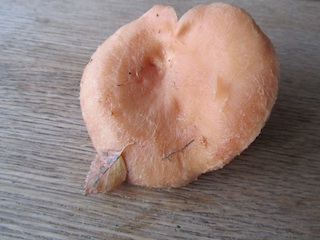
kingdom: Fungi
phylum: Basidiomycota
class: Agaricomycetes
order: Russulales
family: Russulaceae
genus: Lactarius
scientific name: Lactarius torminosus
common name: skægget mælkehat
